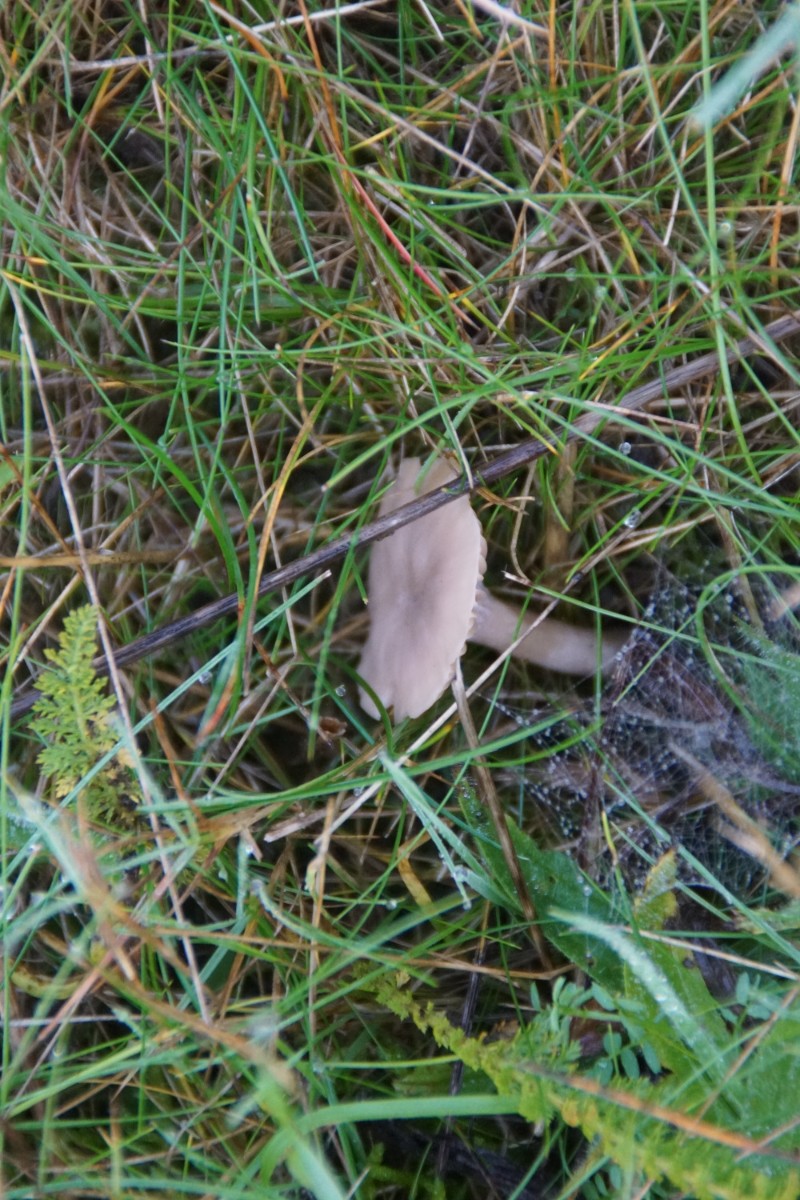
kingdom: Fungi
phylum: Basidiomycota
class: Agaricomycetes
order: Agaricales
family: Hygrophoraceae
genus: Cuphophyllus
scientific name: Cuphophyllus virgineus
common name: isabella-vokshat
